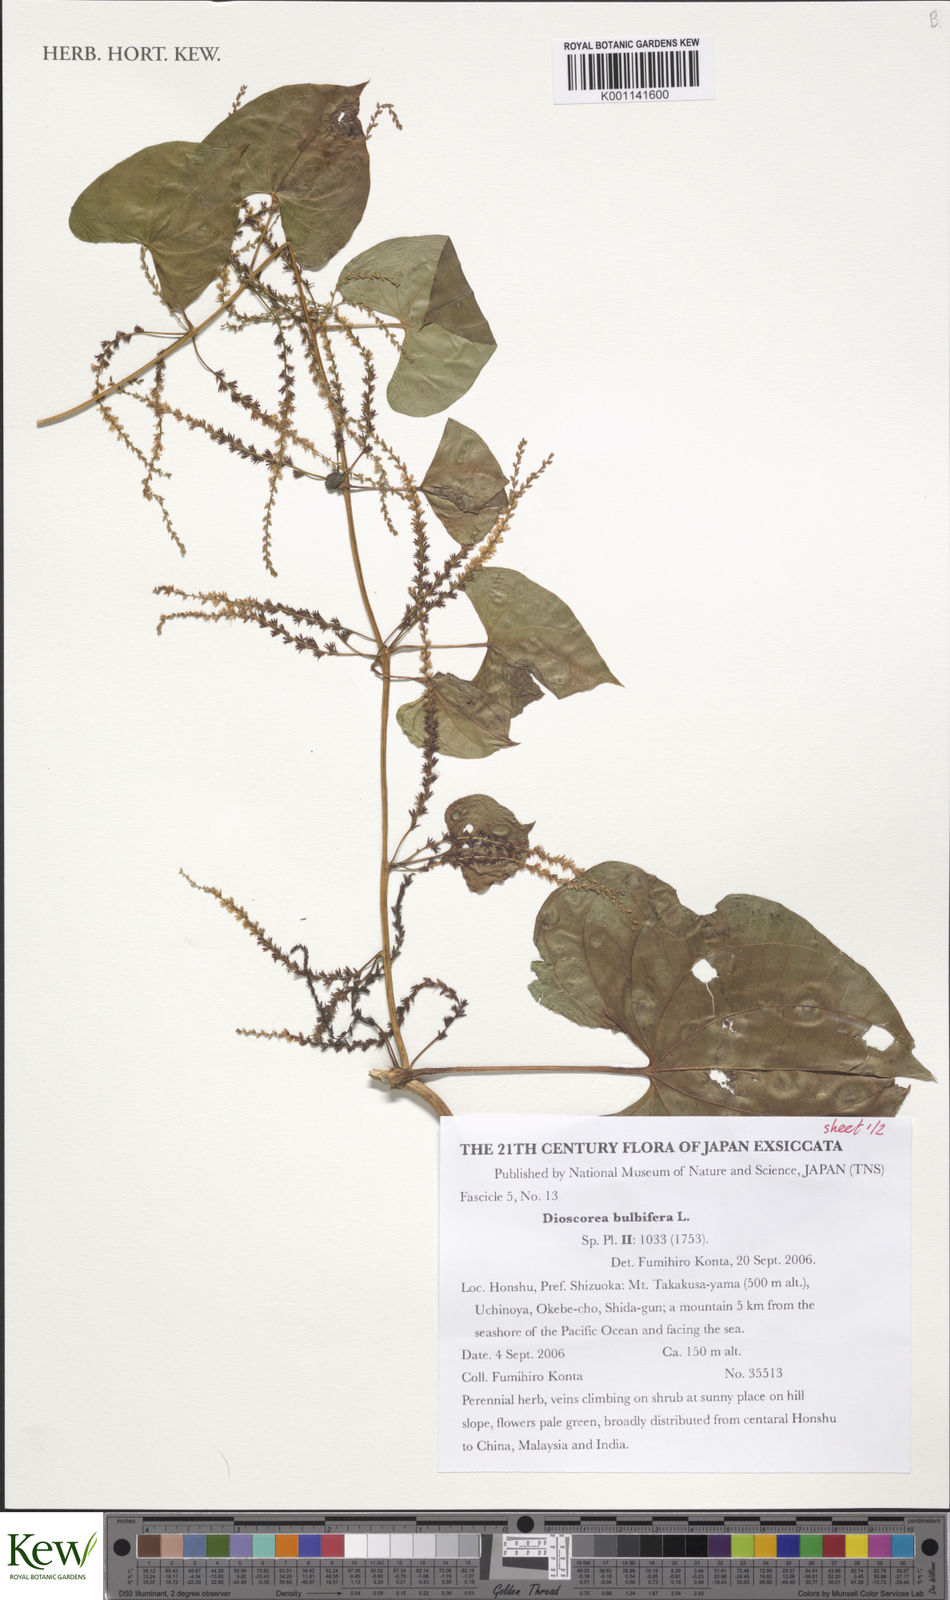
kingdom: Plantae
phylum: Tracheophyta
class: Liliopsida
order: Dioscoreales
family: Dioscoreaceae
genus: Dioscorea
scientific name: Dioscorea bulbifera
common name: Air yam
